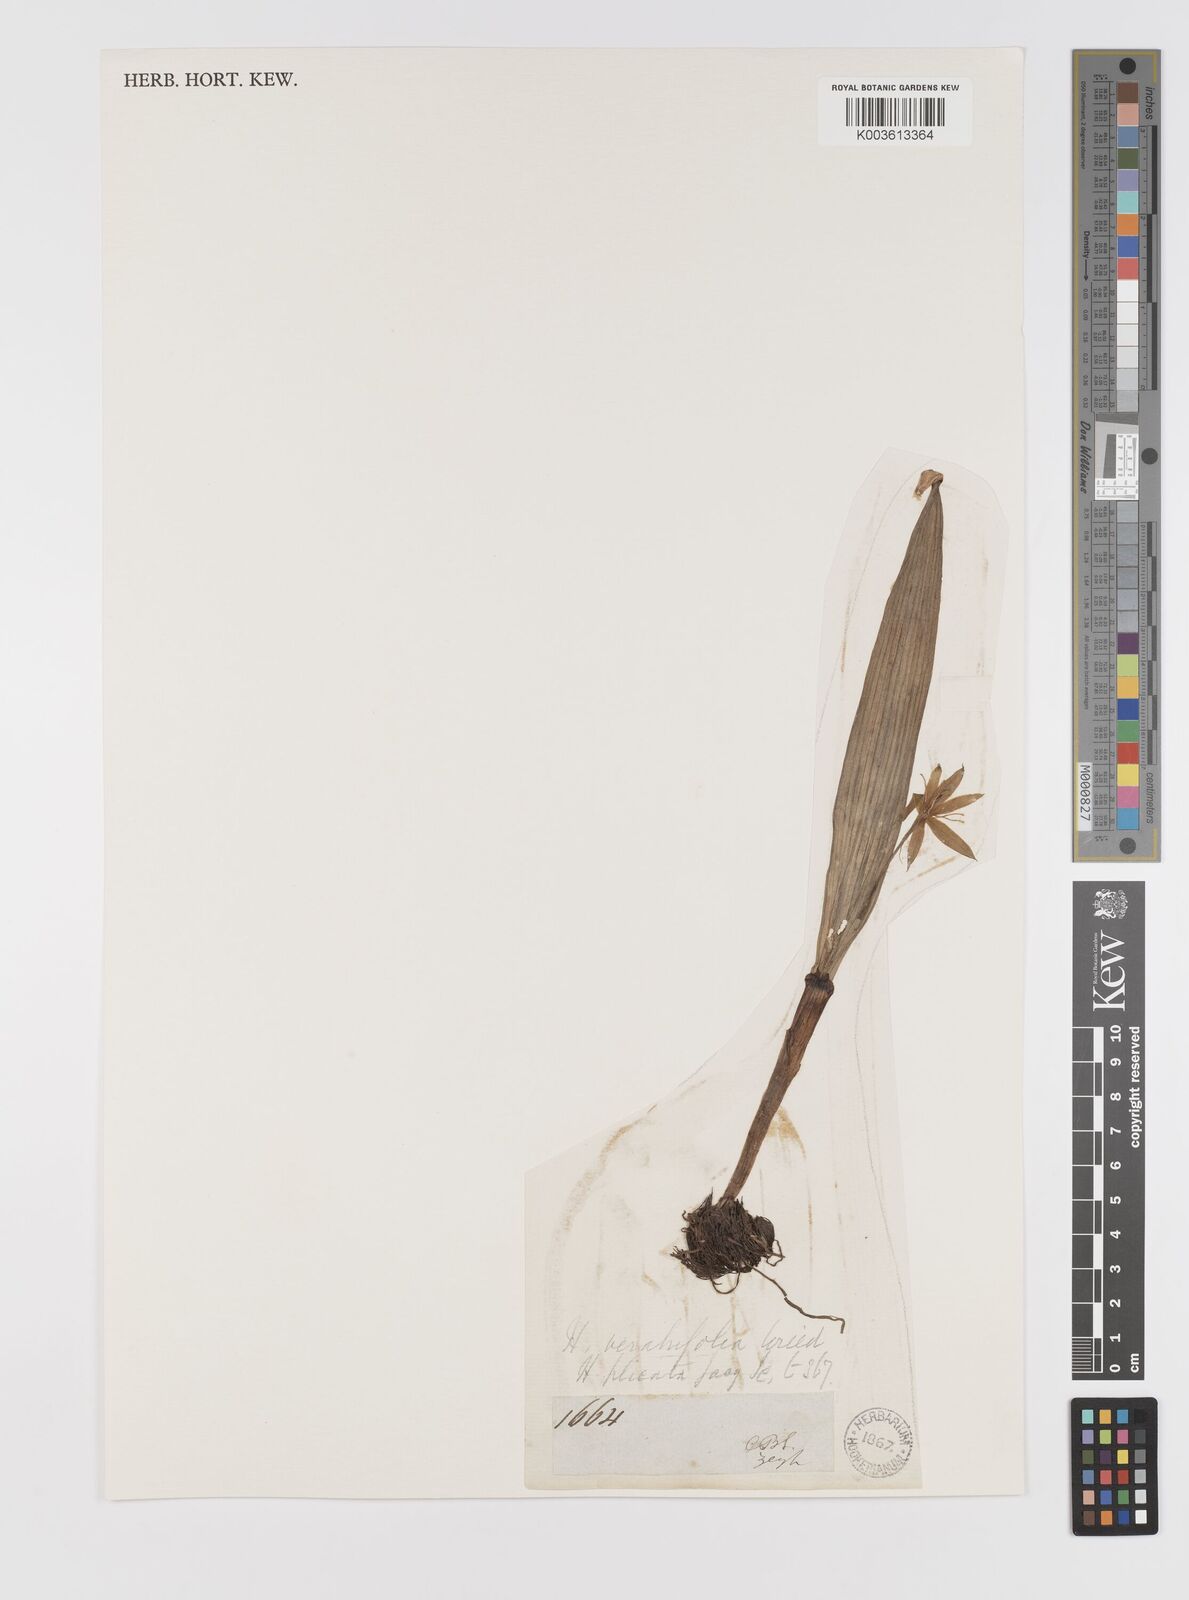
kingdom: Plantae
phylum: Tracheophyta
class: Liliopsida
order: Asparagales
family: Hypoxidaceae
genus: Empodium
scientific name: Empodium veratrifolium
